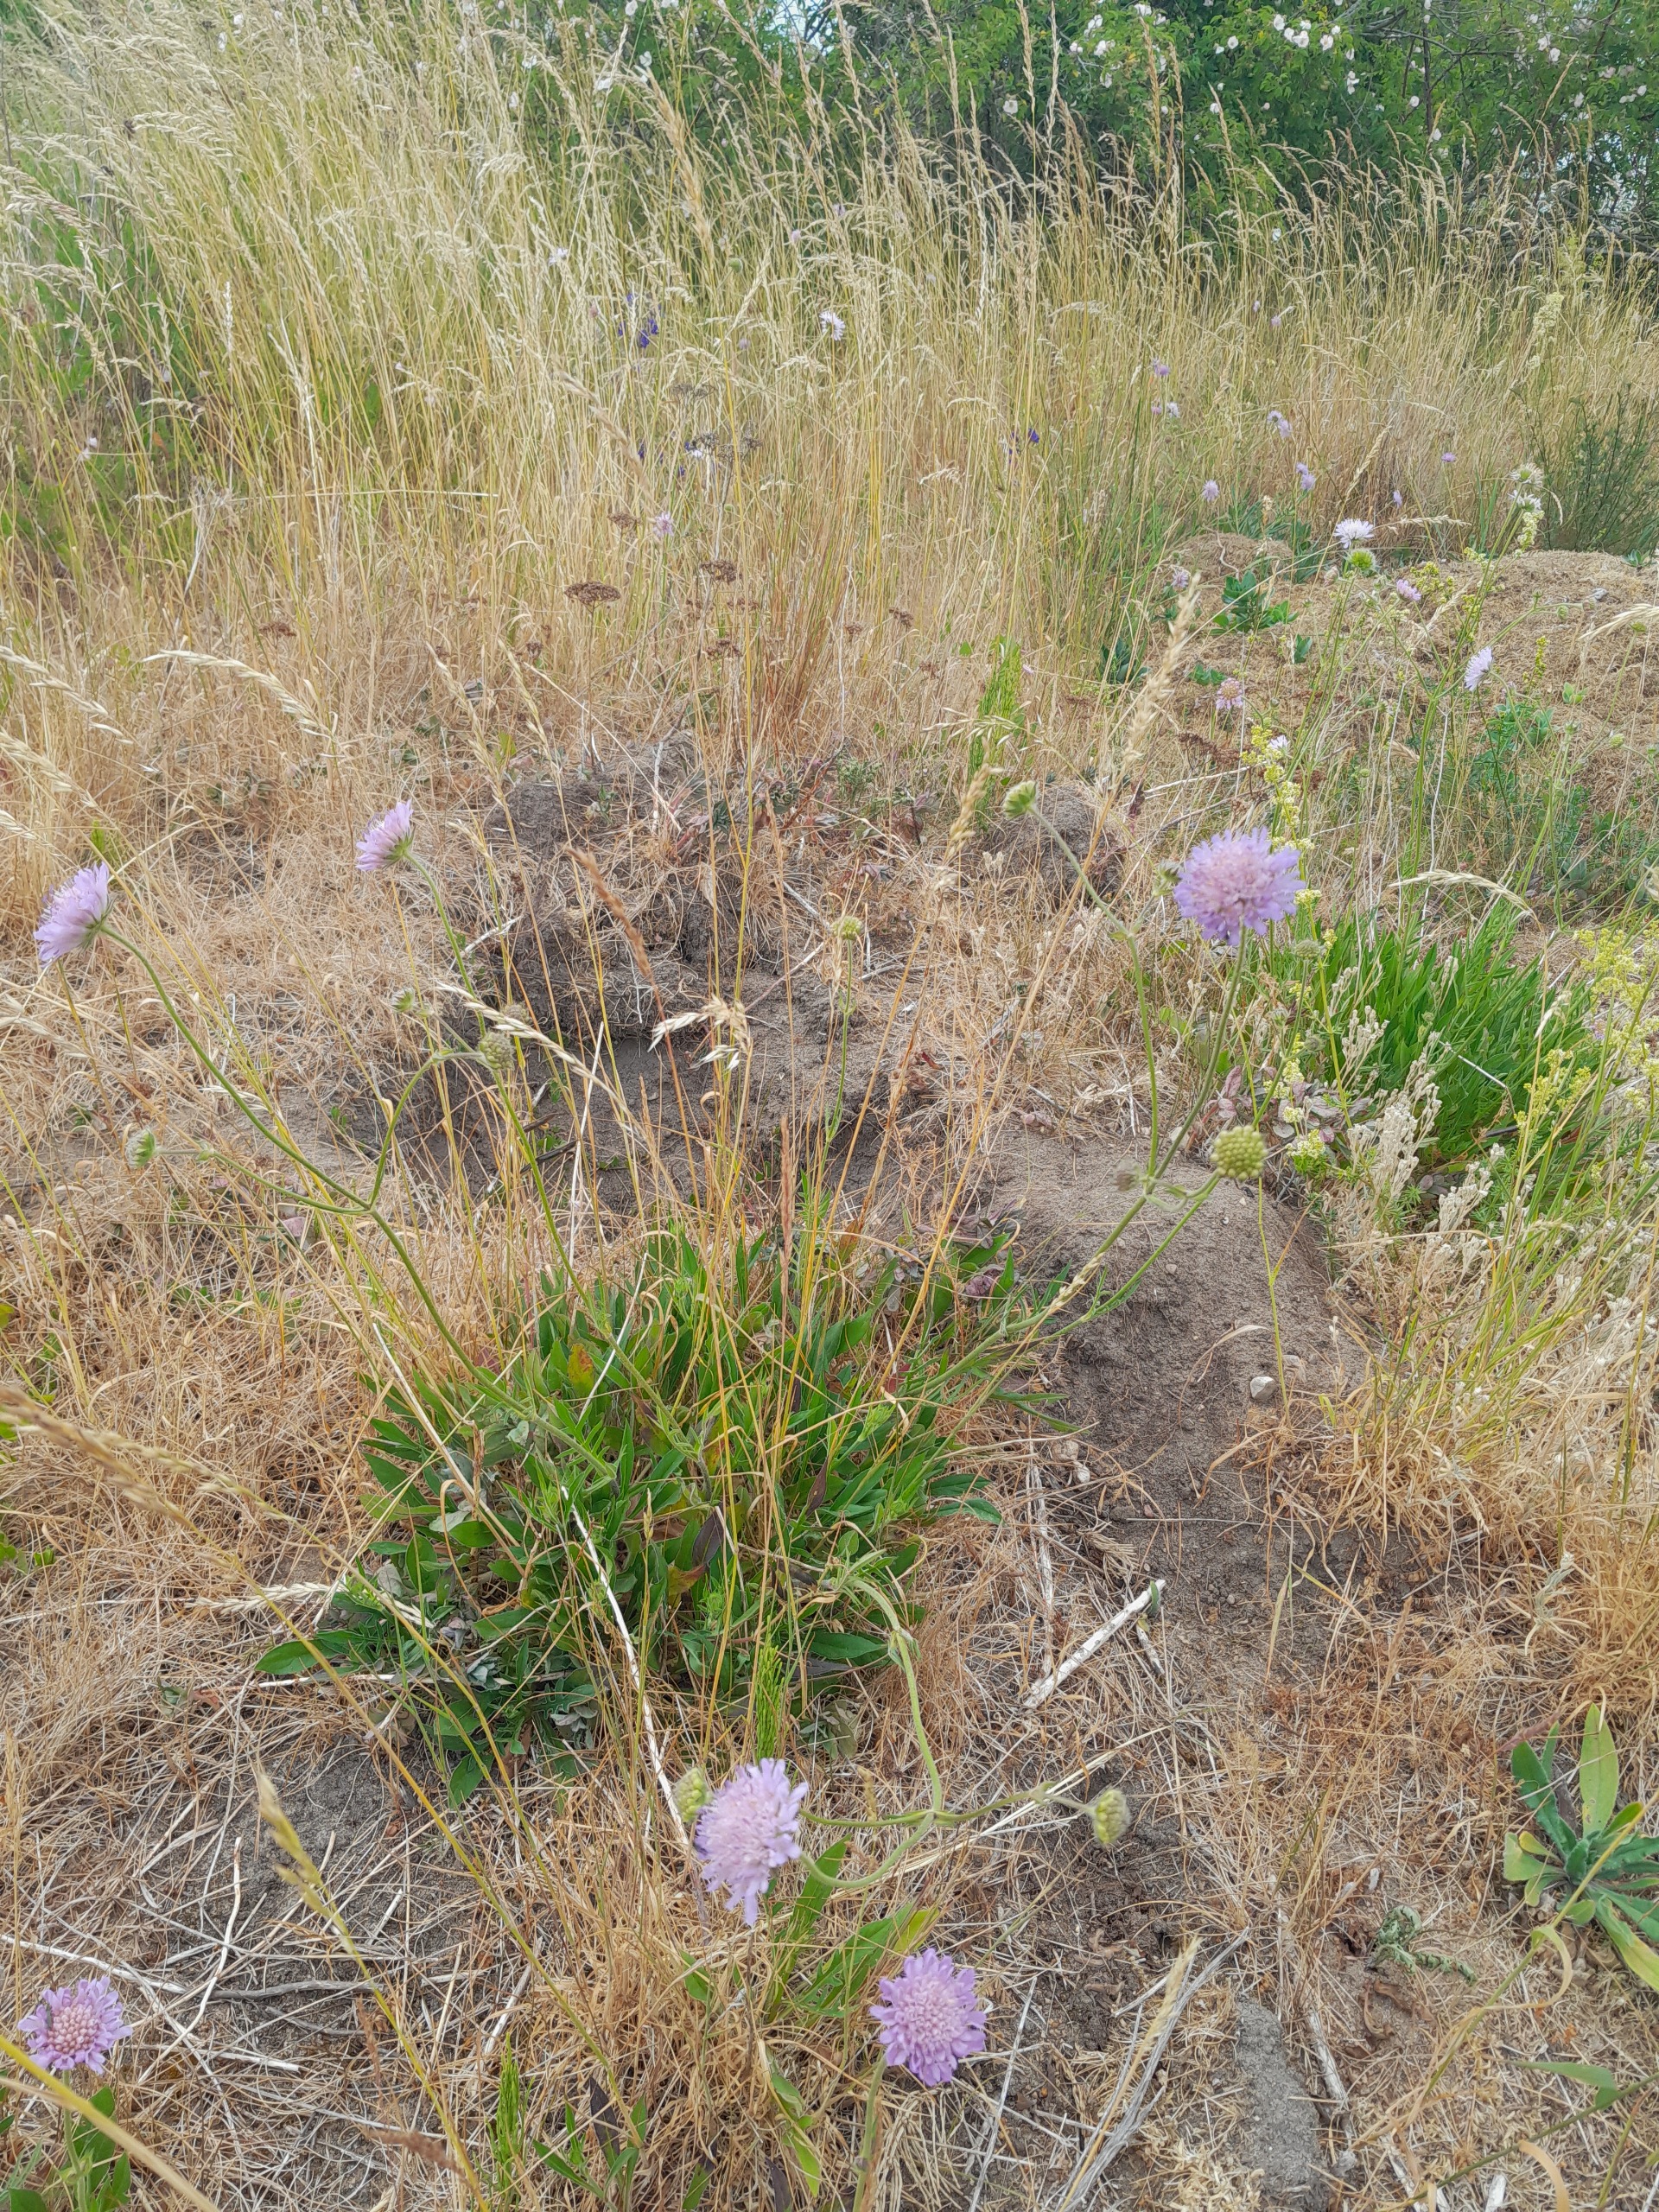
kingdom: Plantae
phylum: Tracheophyta
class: Magnoliopsida
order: Dipsacales
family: Caprifoliaceae
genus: Knautia
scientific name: Knautia arvensis
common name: Blåhat
